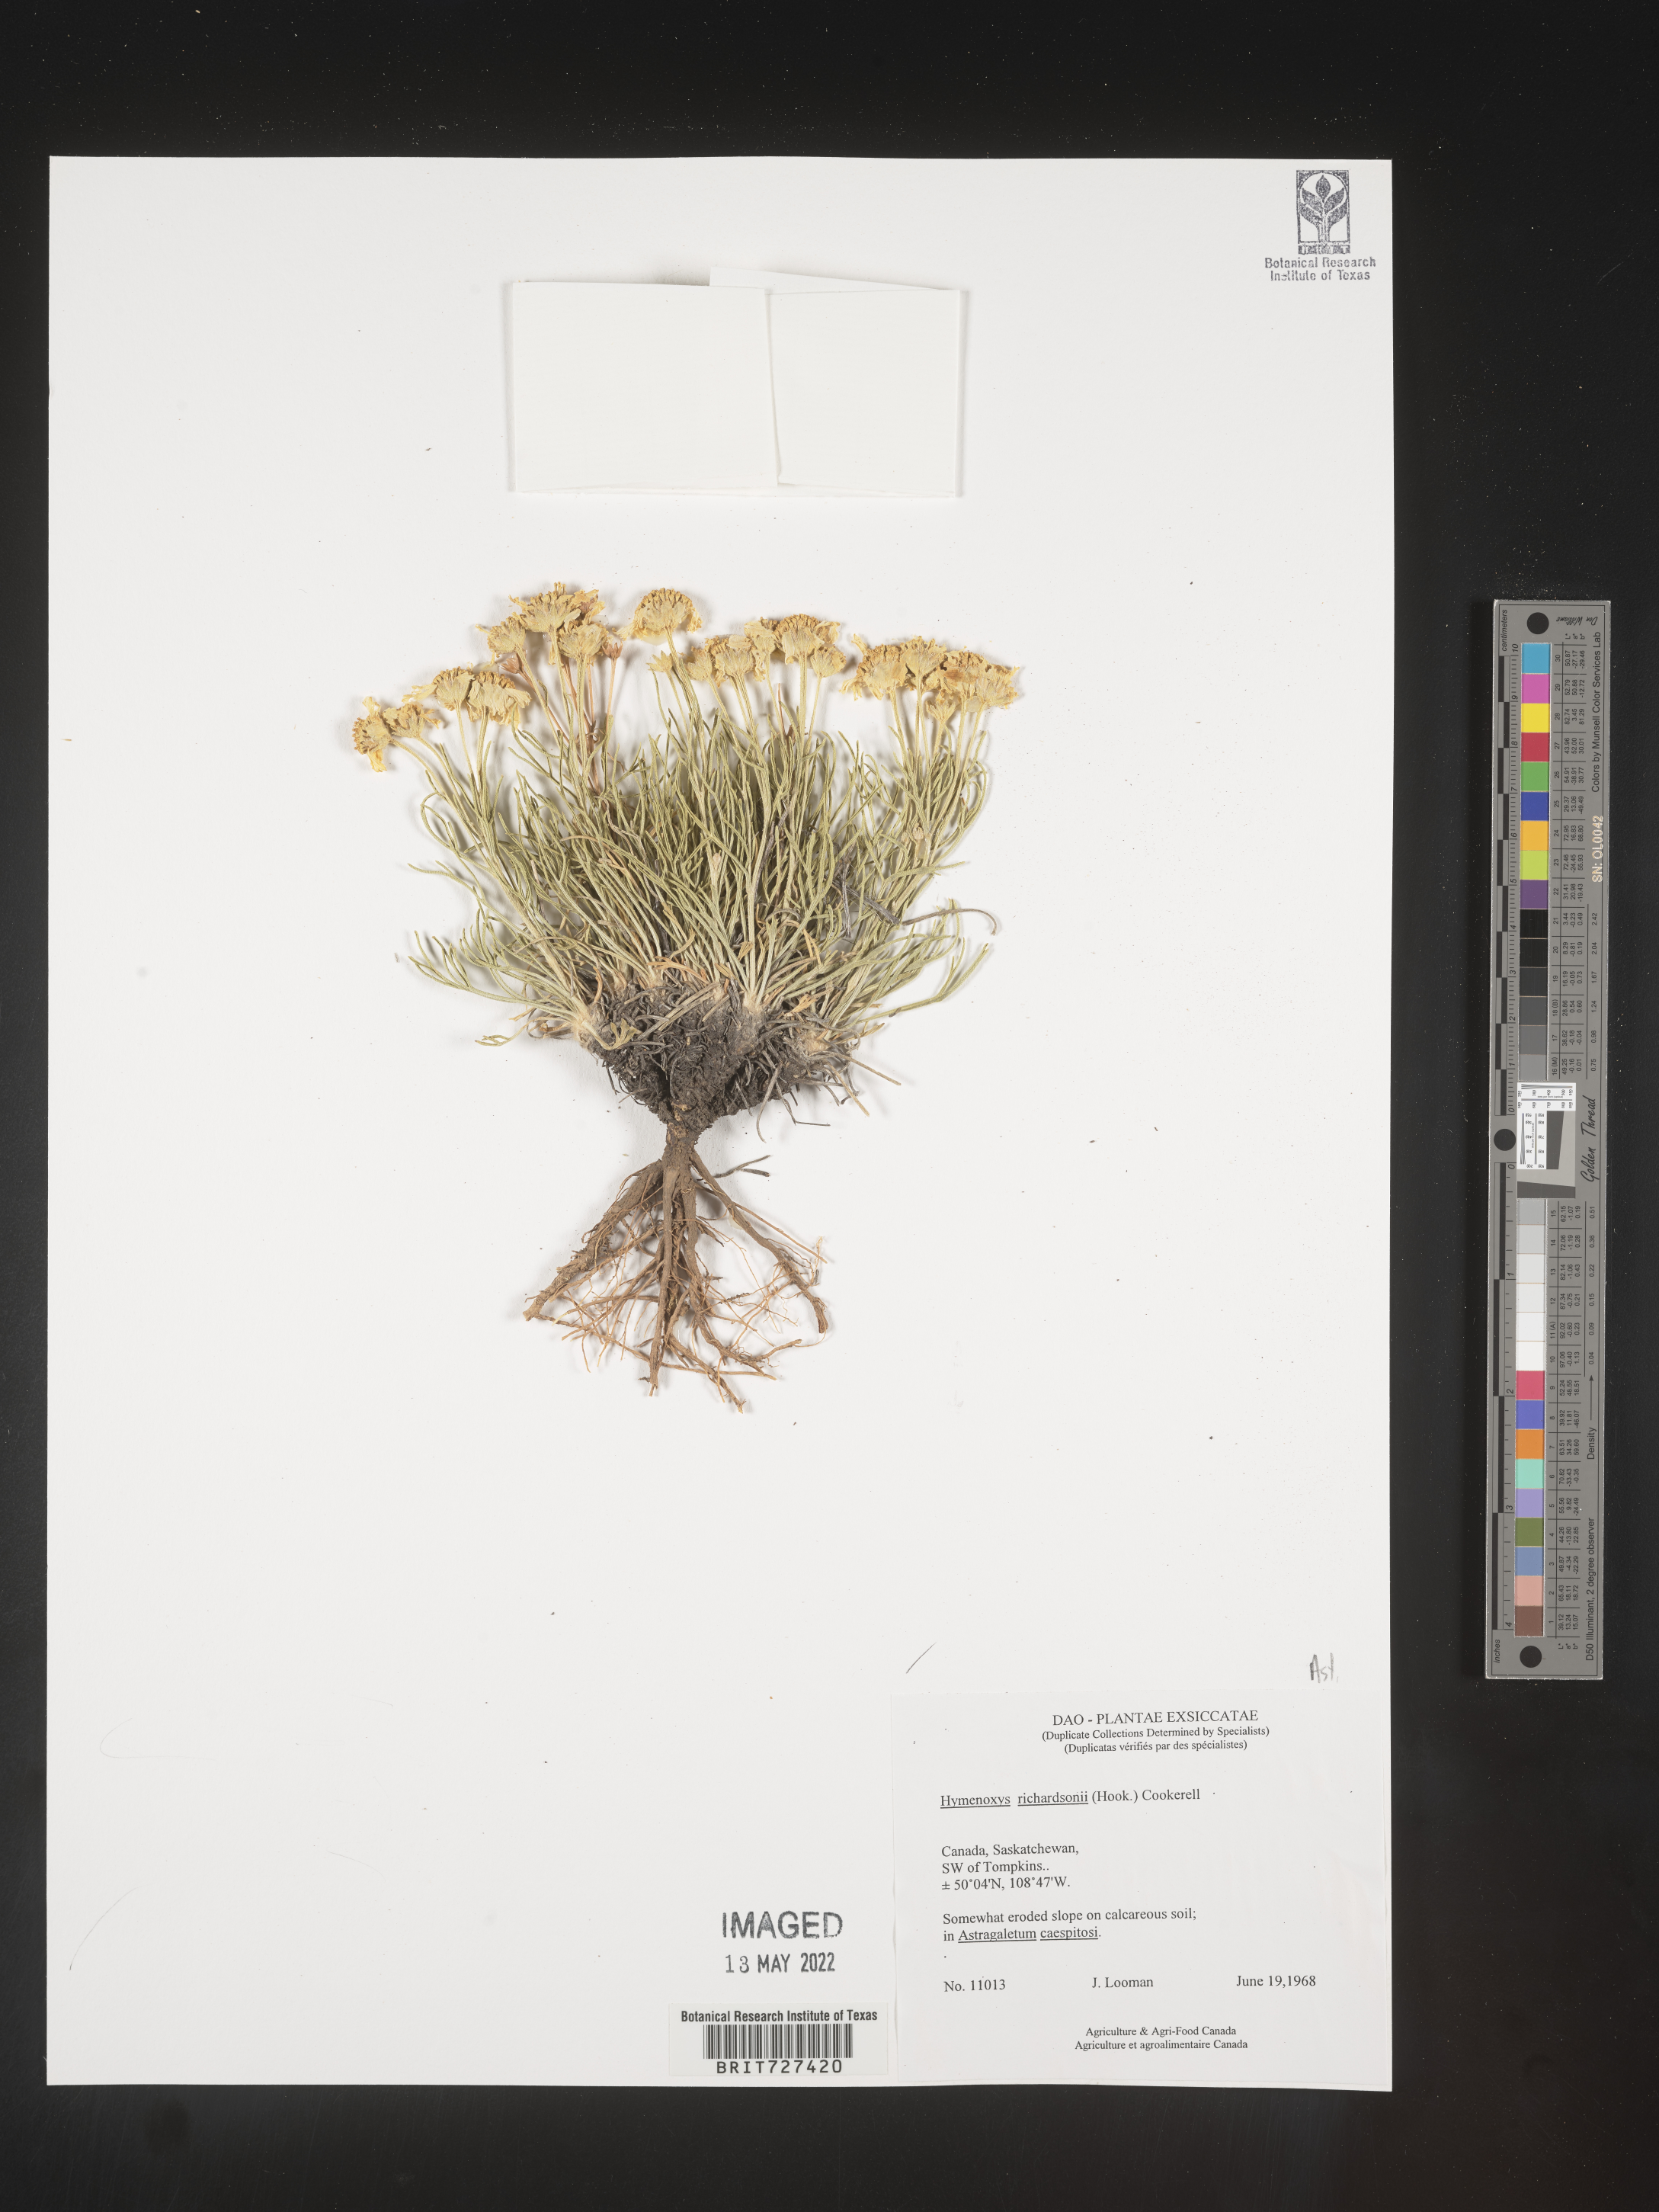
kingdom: Plantae
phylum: Tracheophyta
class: Magnoliopsida
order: Asterales
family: Asteraceae
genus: Hymenoxys
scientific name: Hymenoxys richardsonii
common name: Pingue rubberweed
